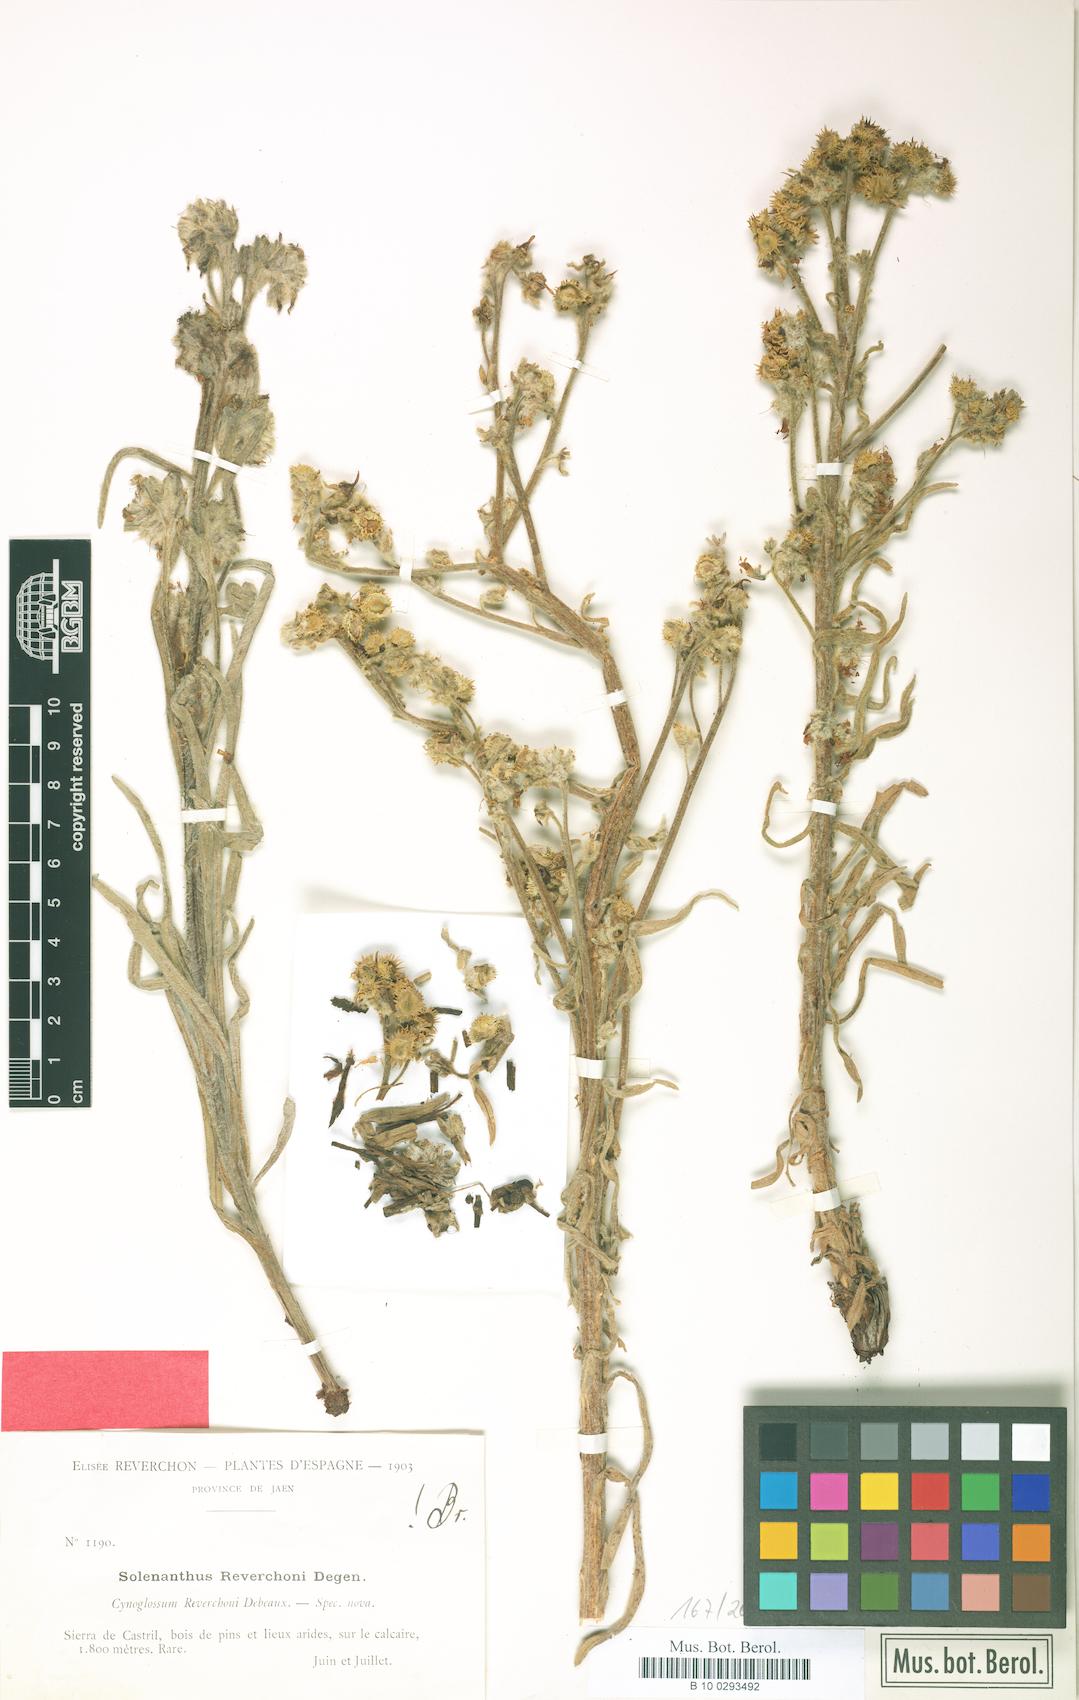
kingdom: Plantae
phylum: Tracheophyta
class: Magnoliopsida
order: Boraginales
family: Boraginaceae
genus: Solenanthus
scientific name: Solenanthus reverchonii
